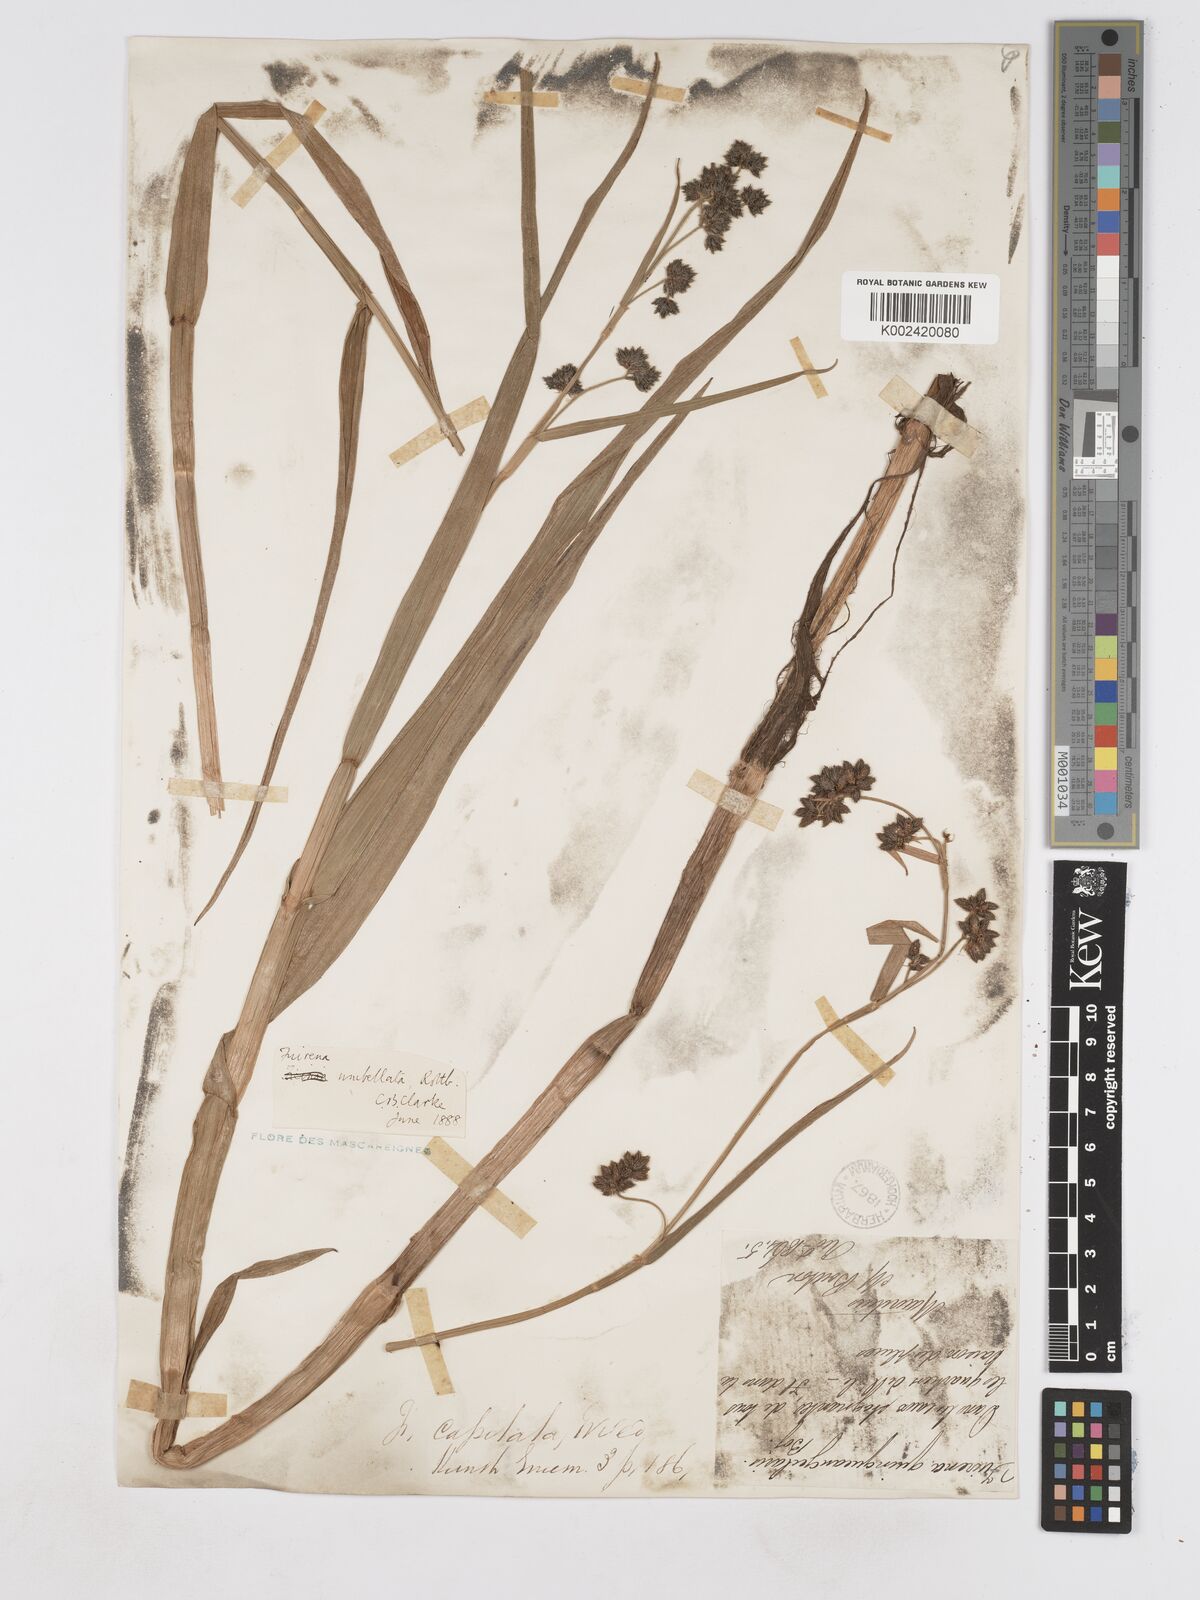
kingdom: Plantae
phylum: Tracheophyta
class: Liliopsida
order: Poales
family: Cyperaceae
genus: Fuirena
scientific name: Fuirena umbellata
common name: Yefen
